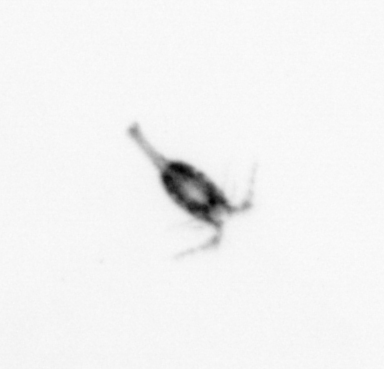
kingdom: Animalia
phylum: Arthropoda
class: Copepoda
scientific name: Copepoda
